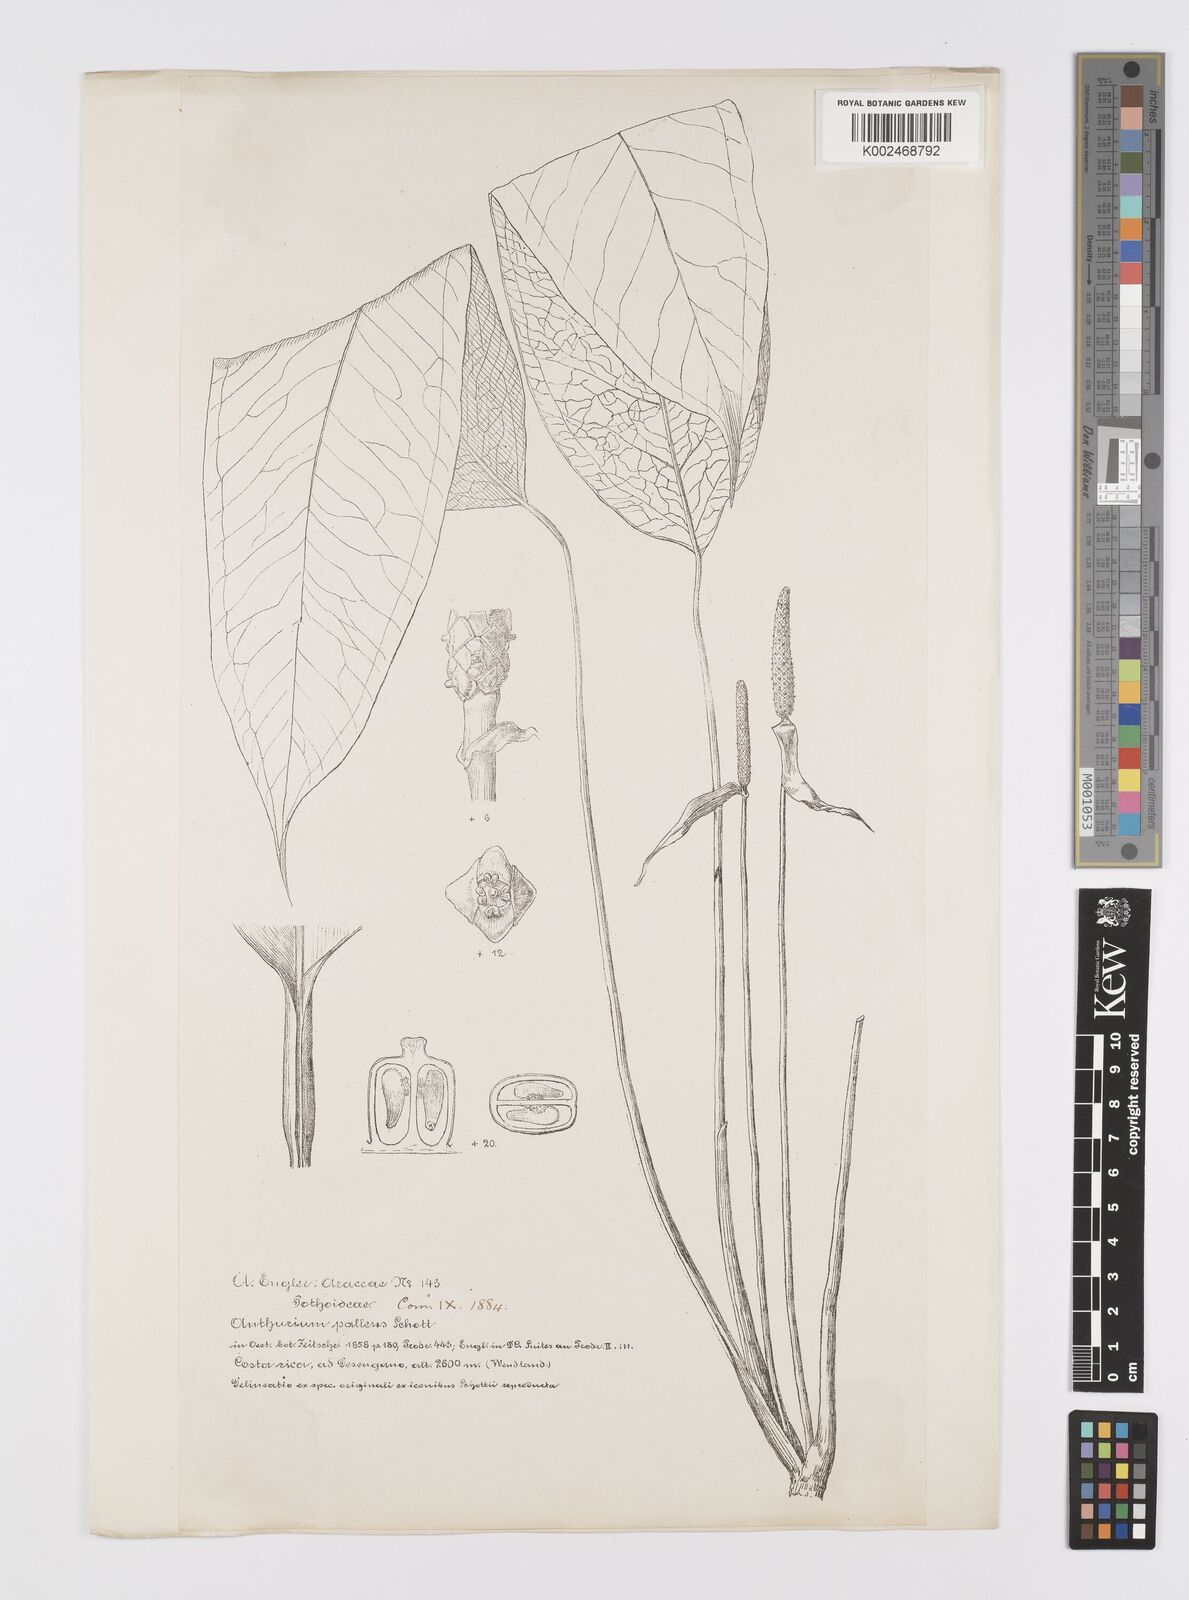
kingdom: Plantae
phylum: Tracheophyta
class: Liliopsida
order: Alismatales
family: Araceae
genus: Anthurium
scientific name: Anthurium pallens
